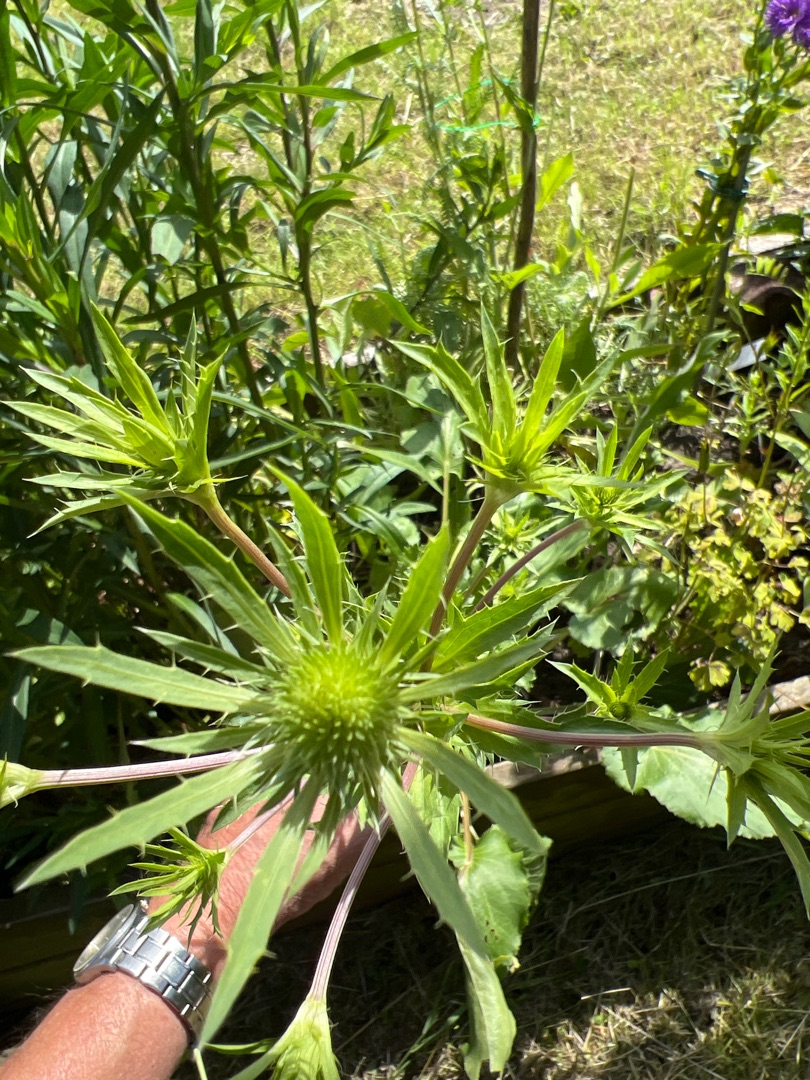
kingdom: Plantae
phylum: Tracheophyta
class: Magnoliopsida
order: Apiales
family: Apiaceae
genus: Eryngium
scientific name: Eryngium planum
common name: Russisk mandstro
